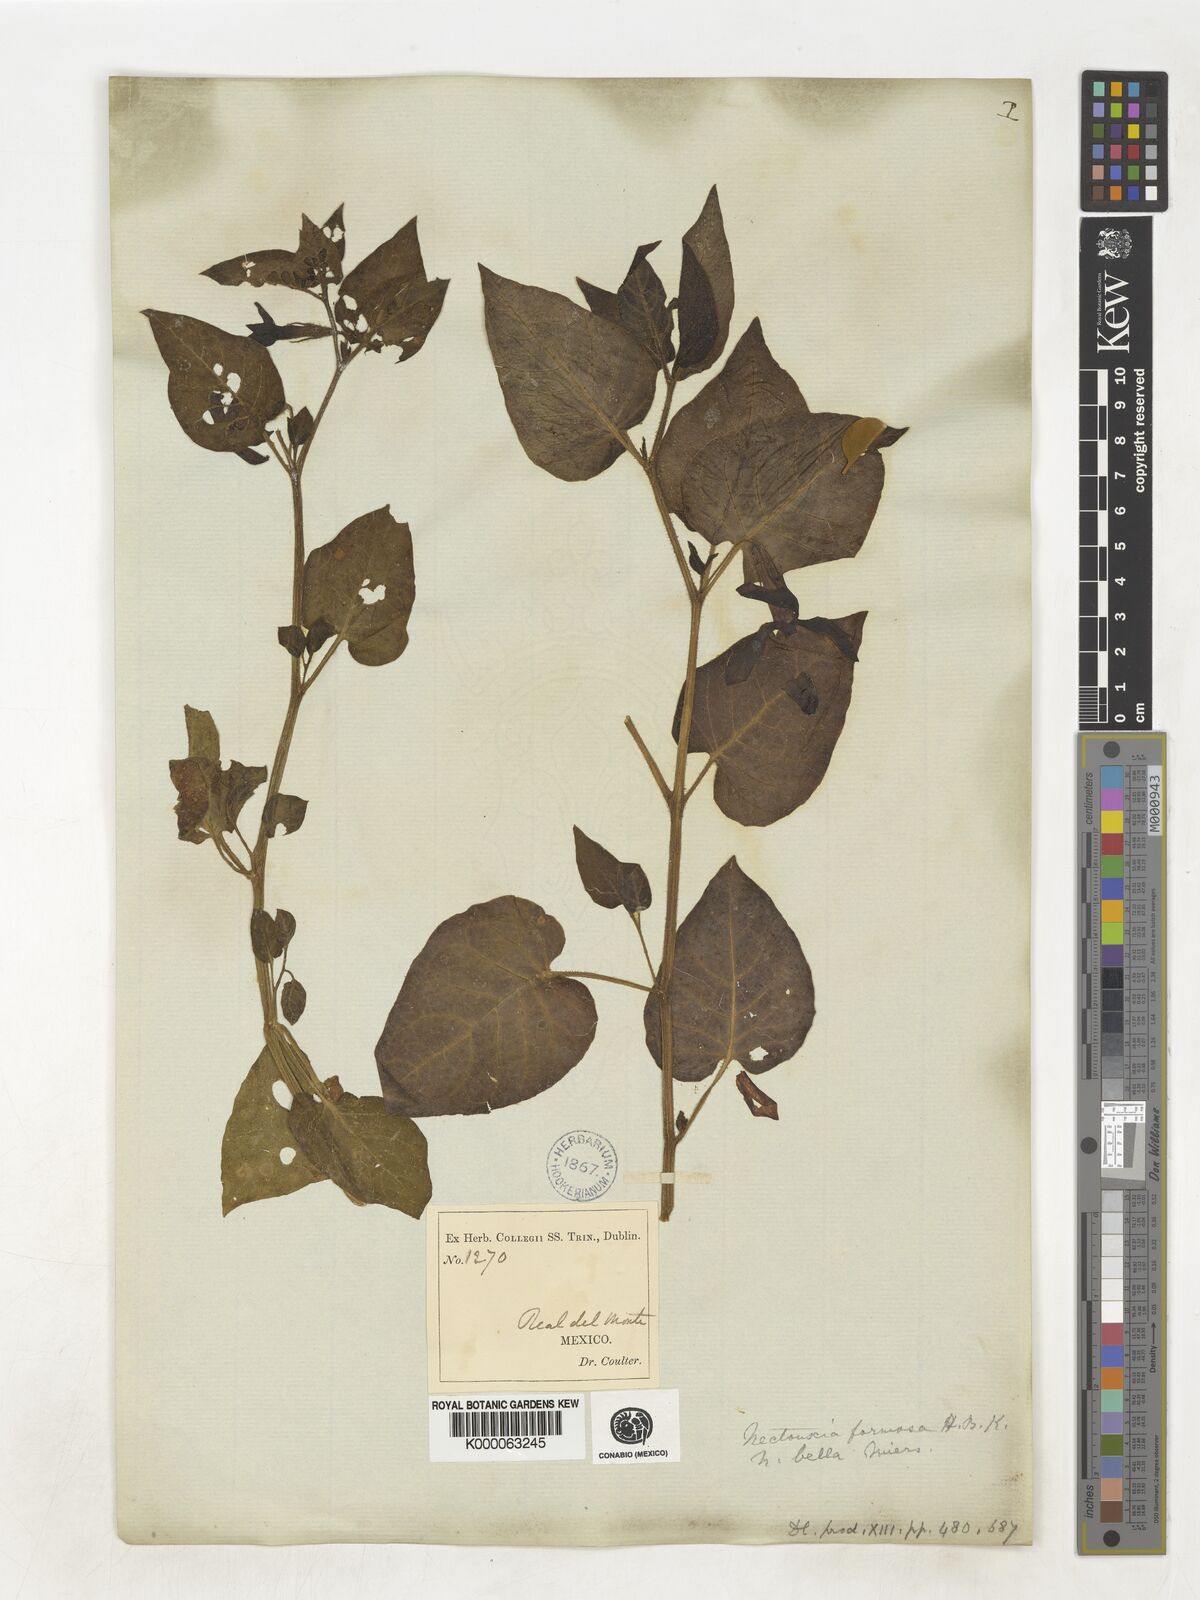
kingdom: Plantae
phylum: Tracheophyta
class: Magnoliopsida
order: Solanales
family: Solanaceae
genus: Nectouxia
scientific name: Nectouxia formosa
